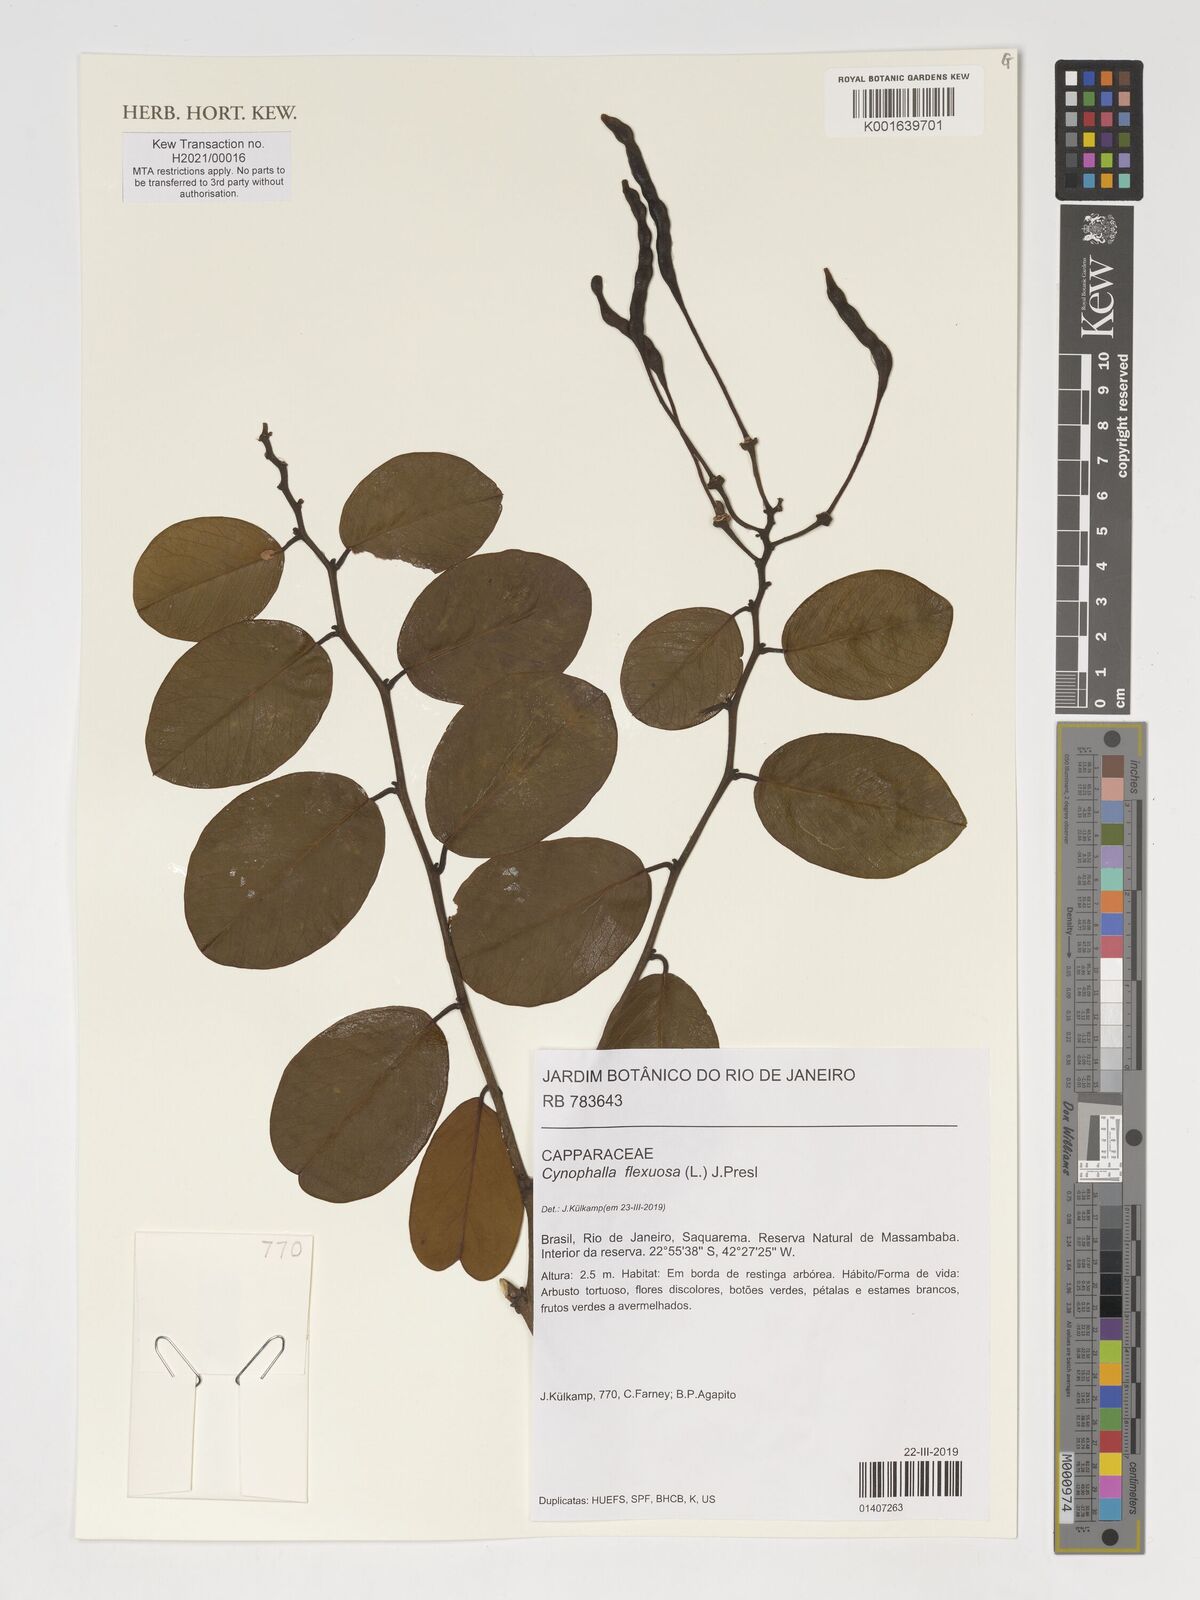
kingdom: Plantae
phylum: Tracheophyta
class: Magnoliopsida
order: Brassicales
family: Capparaceae
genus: Cynophalla
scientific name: Cynophalla flexuosa
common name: Capertree
